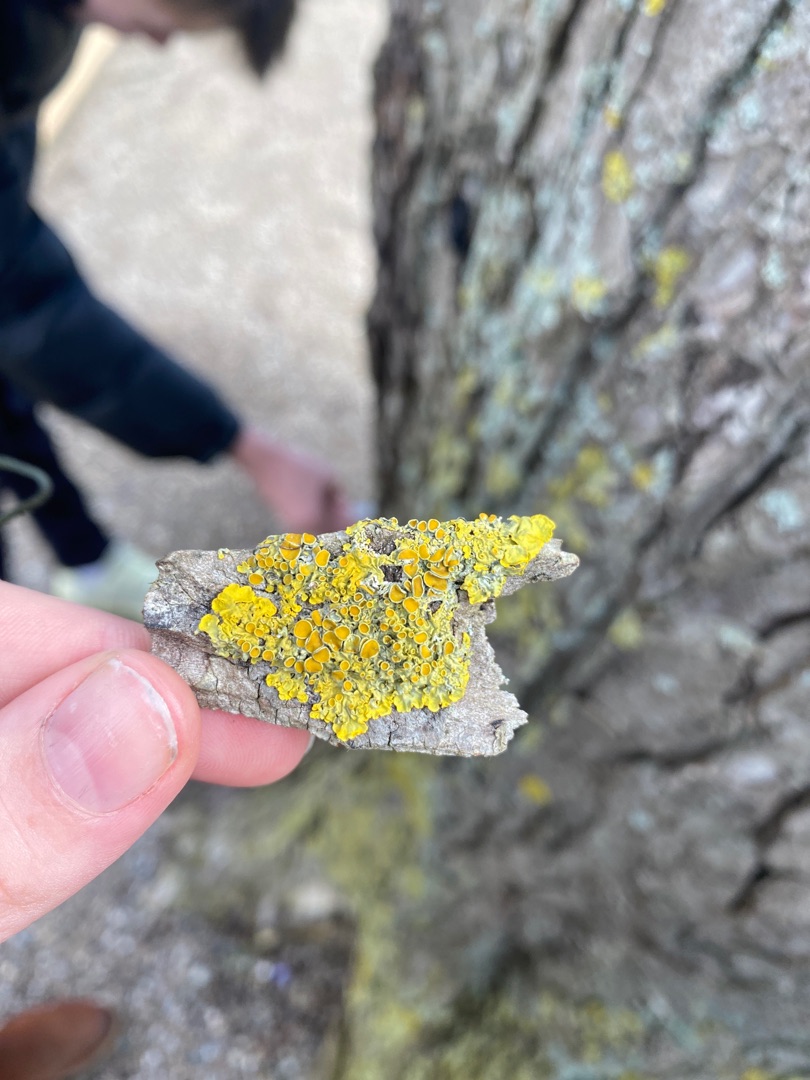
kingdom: Fungi
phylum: Ascomycota
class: Lecanoromycetes
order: Teloschistales
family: Teloschistaceae
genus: Xanthoria
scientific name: Xanthoria parietina
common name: Almindelig væggelav
